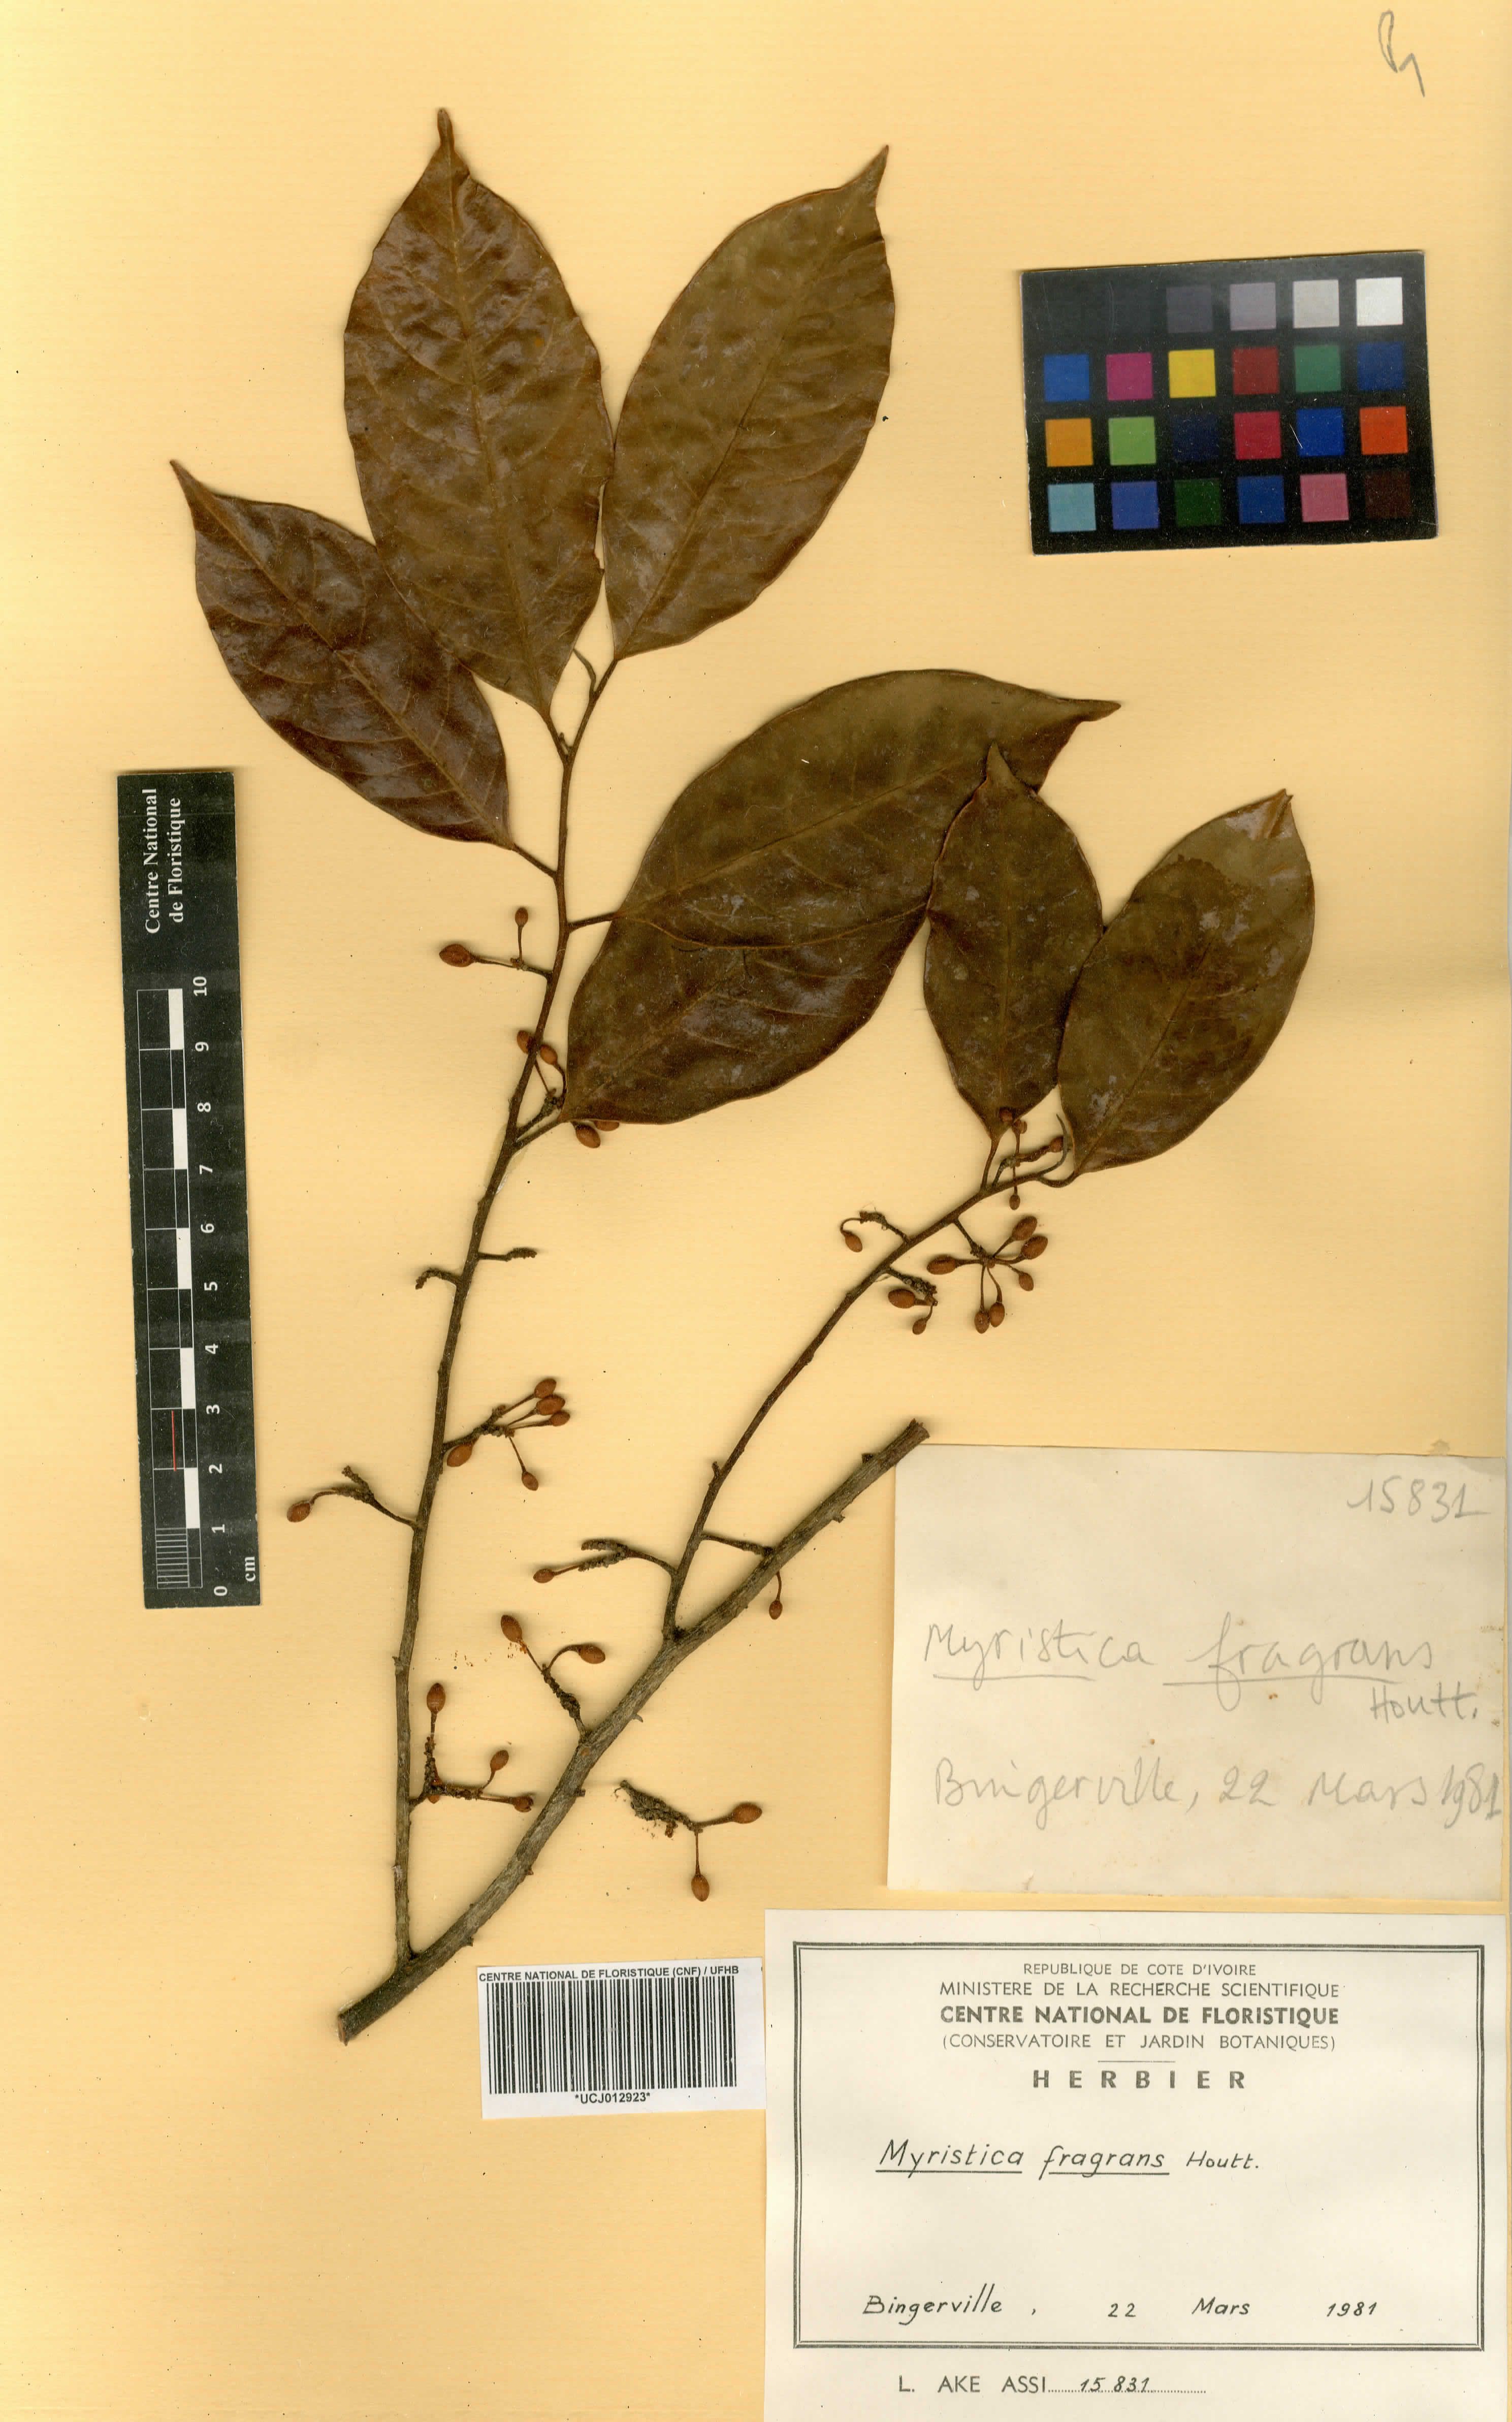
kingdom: Plantae
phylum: Tracheophyta
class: Magnoliopsida
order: Magnoliales
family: Myristicaceae
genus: Myristica
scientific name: Myristica fragrans
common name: Nutmeg
